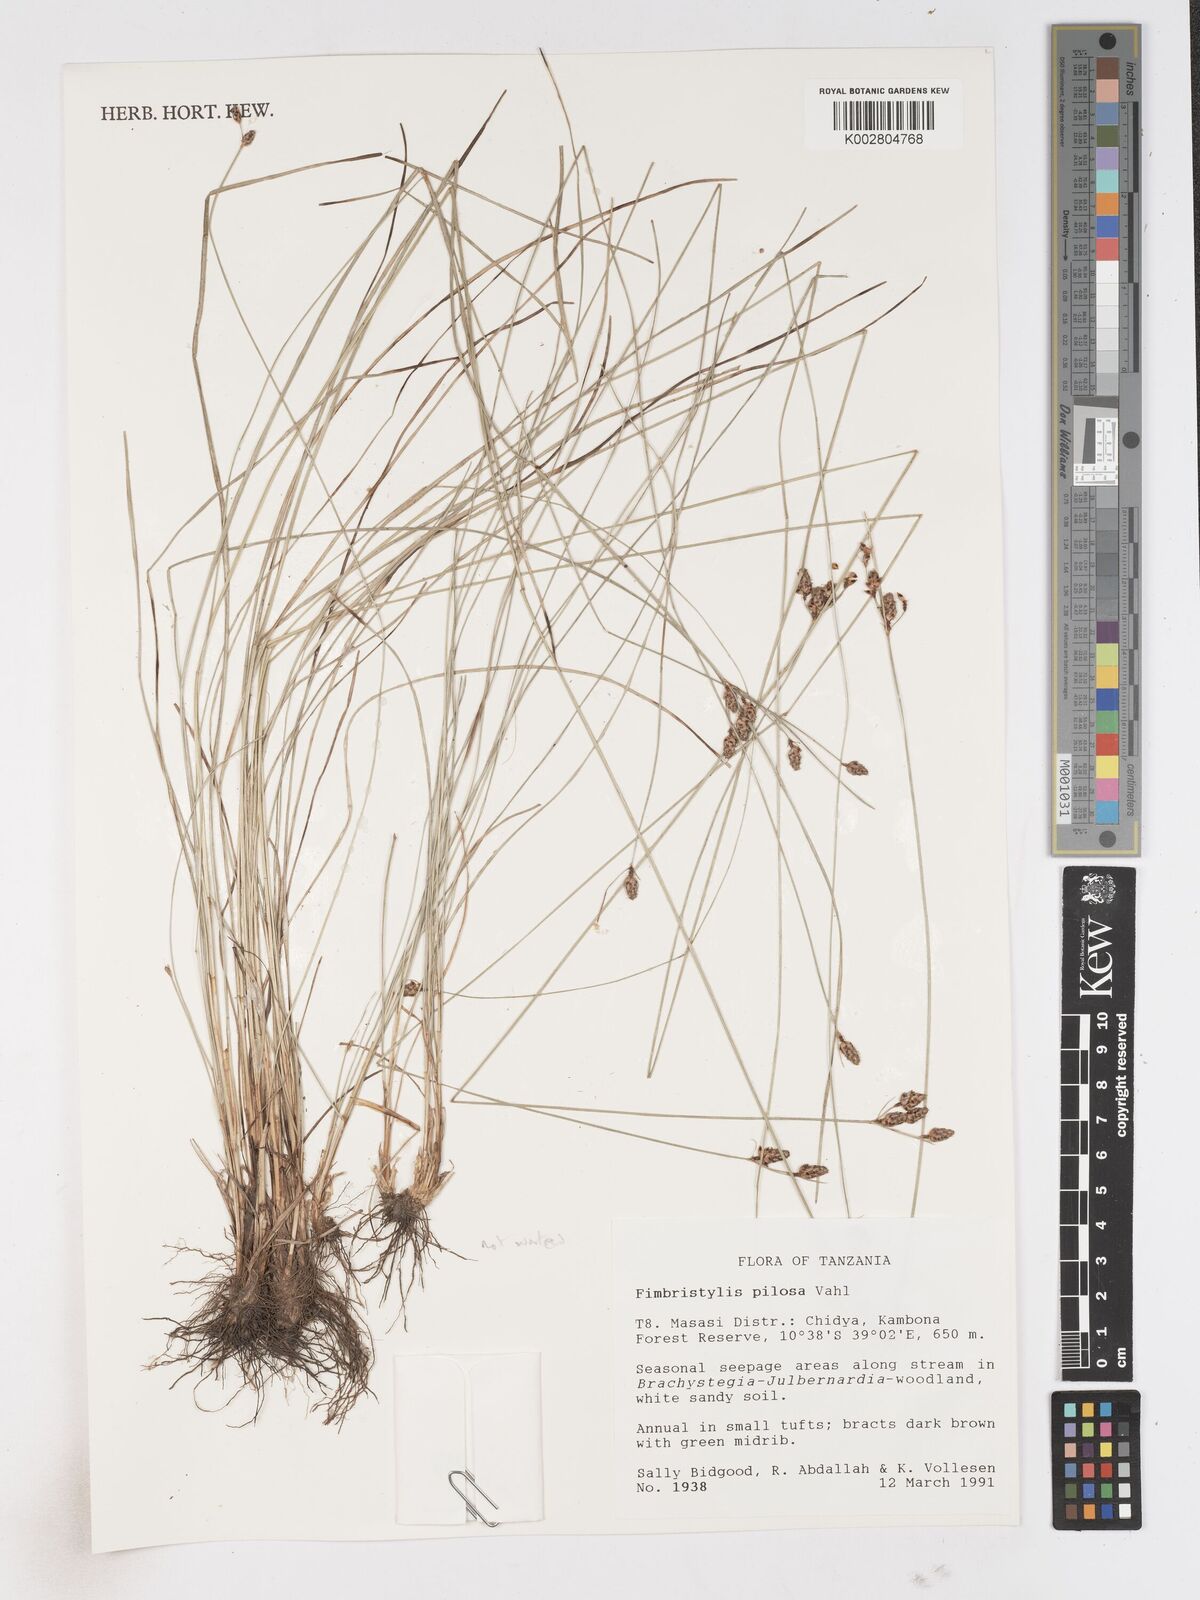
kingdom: Plantae
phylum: Tracheophyta
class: Liliopsida
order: Poales
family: Cyperaceae
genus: Fimbristylis
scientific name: Fimbristylis pilosa
